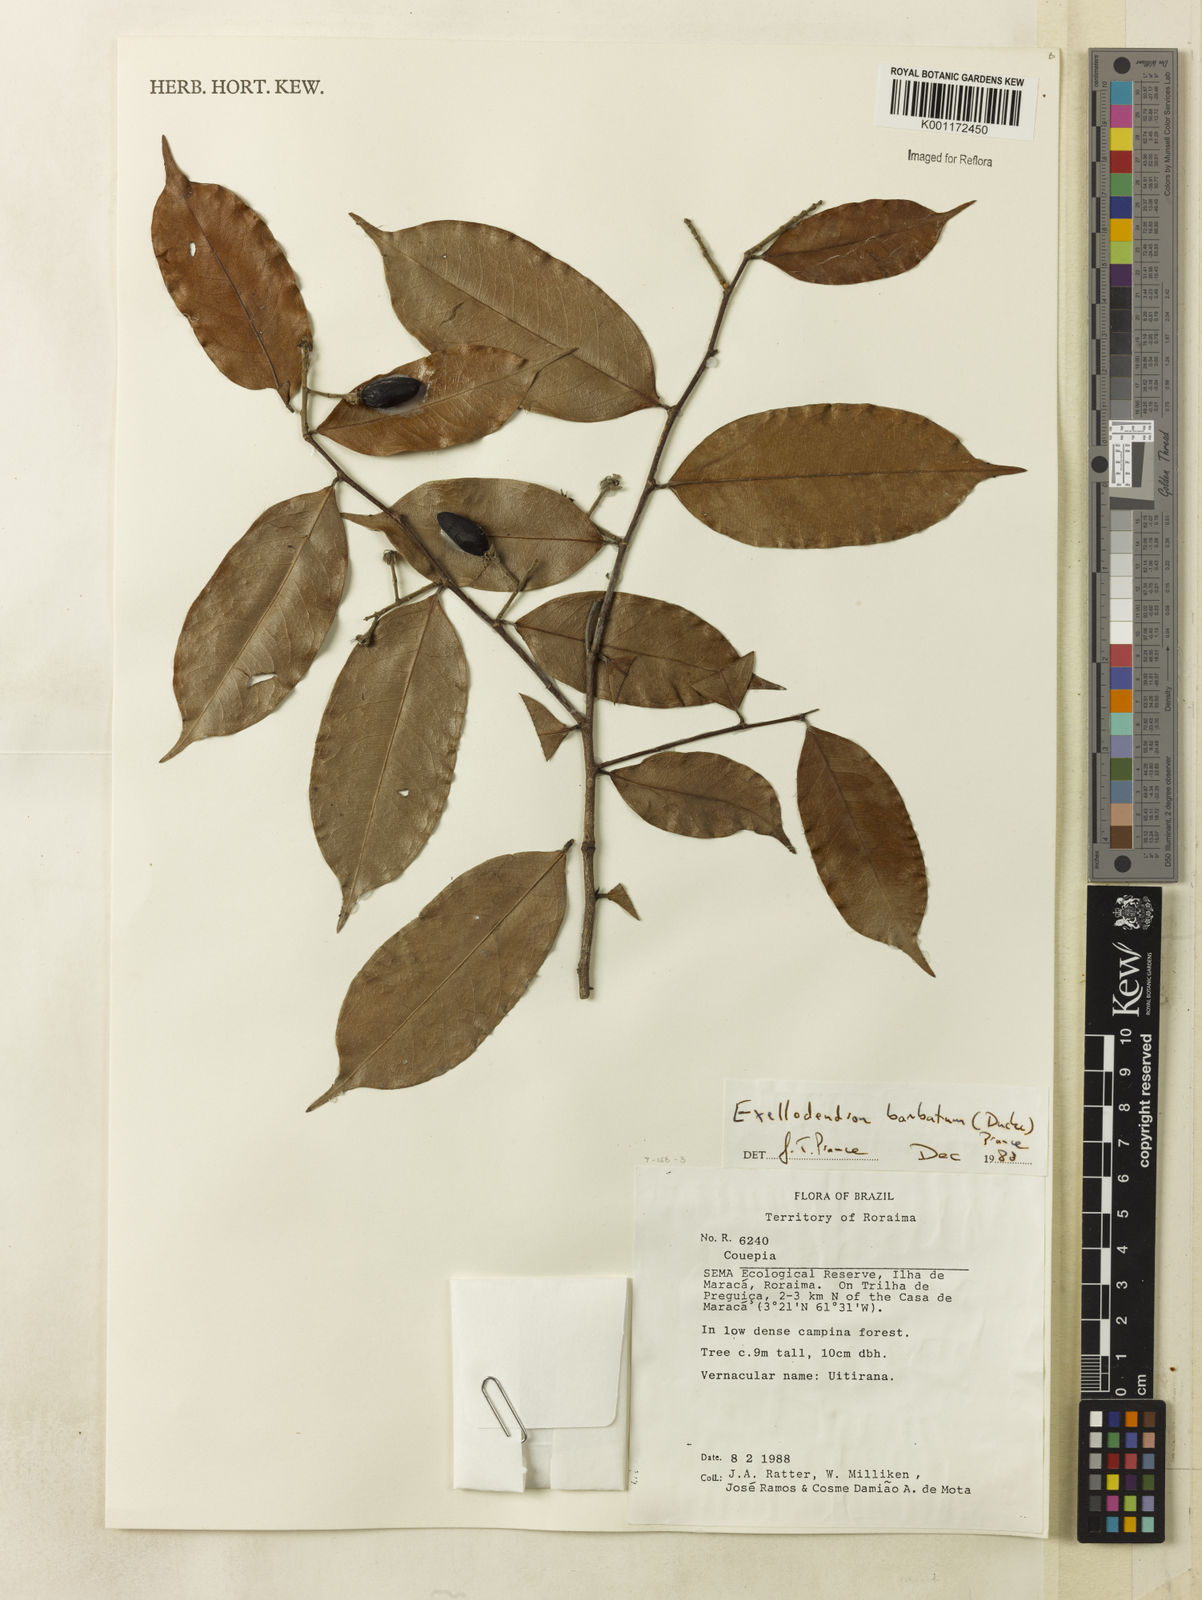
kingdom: Plantae
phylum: Tracheophyta
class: Magnoliopsida
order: Malpighiales
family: Chrysobalanaceae
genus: Atuna
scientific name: Atuna
